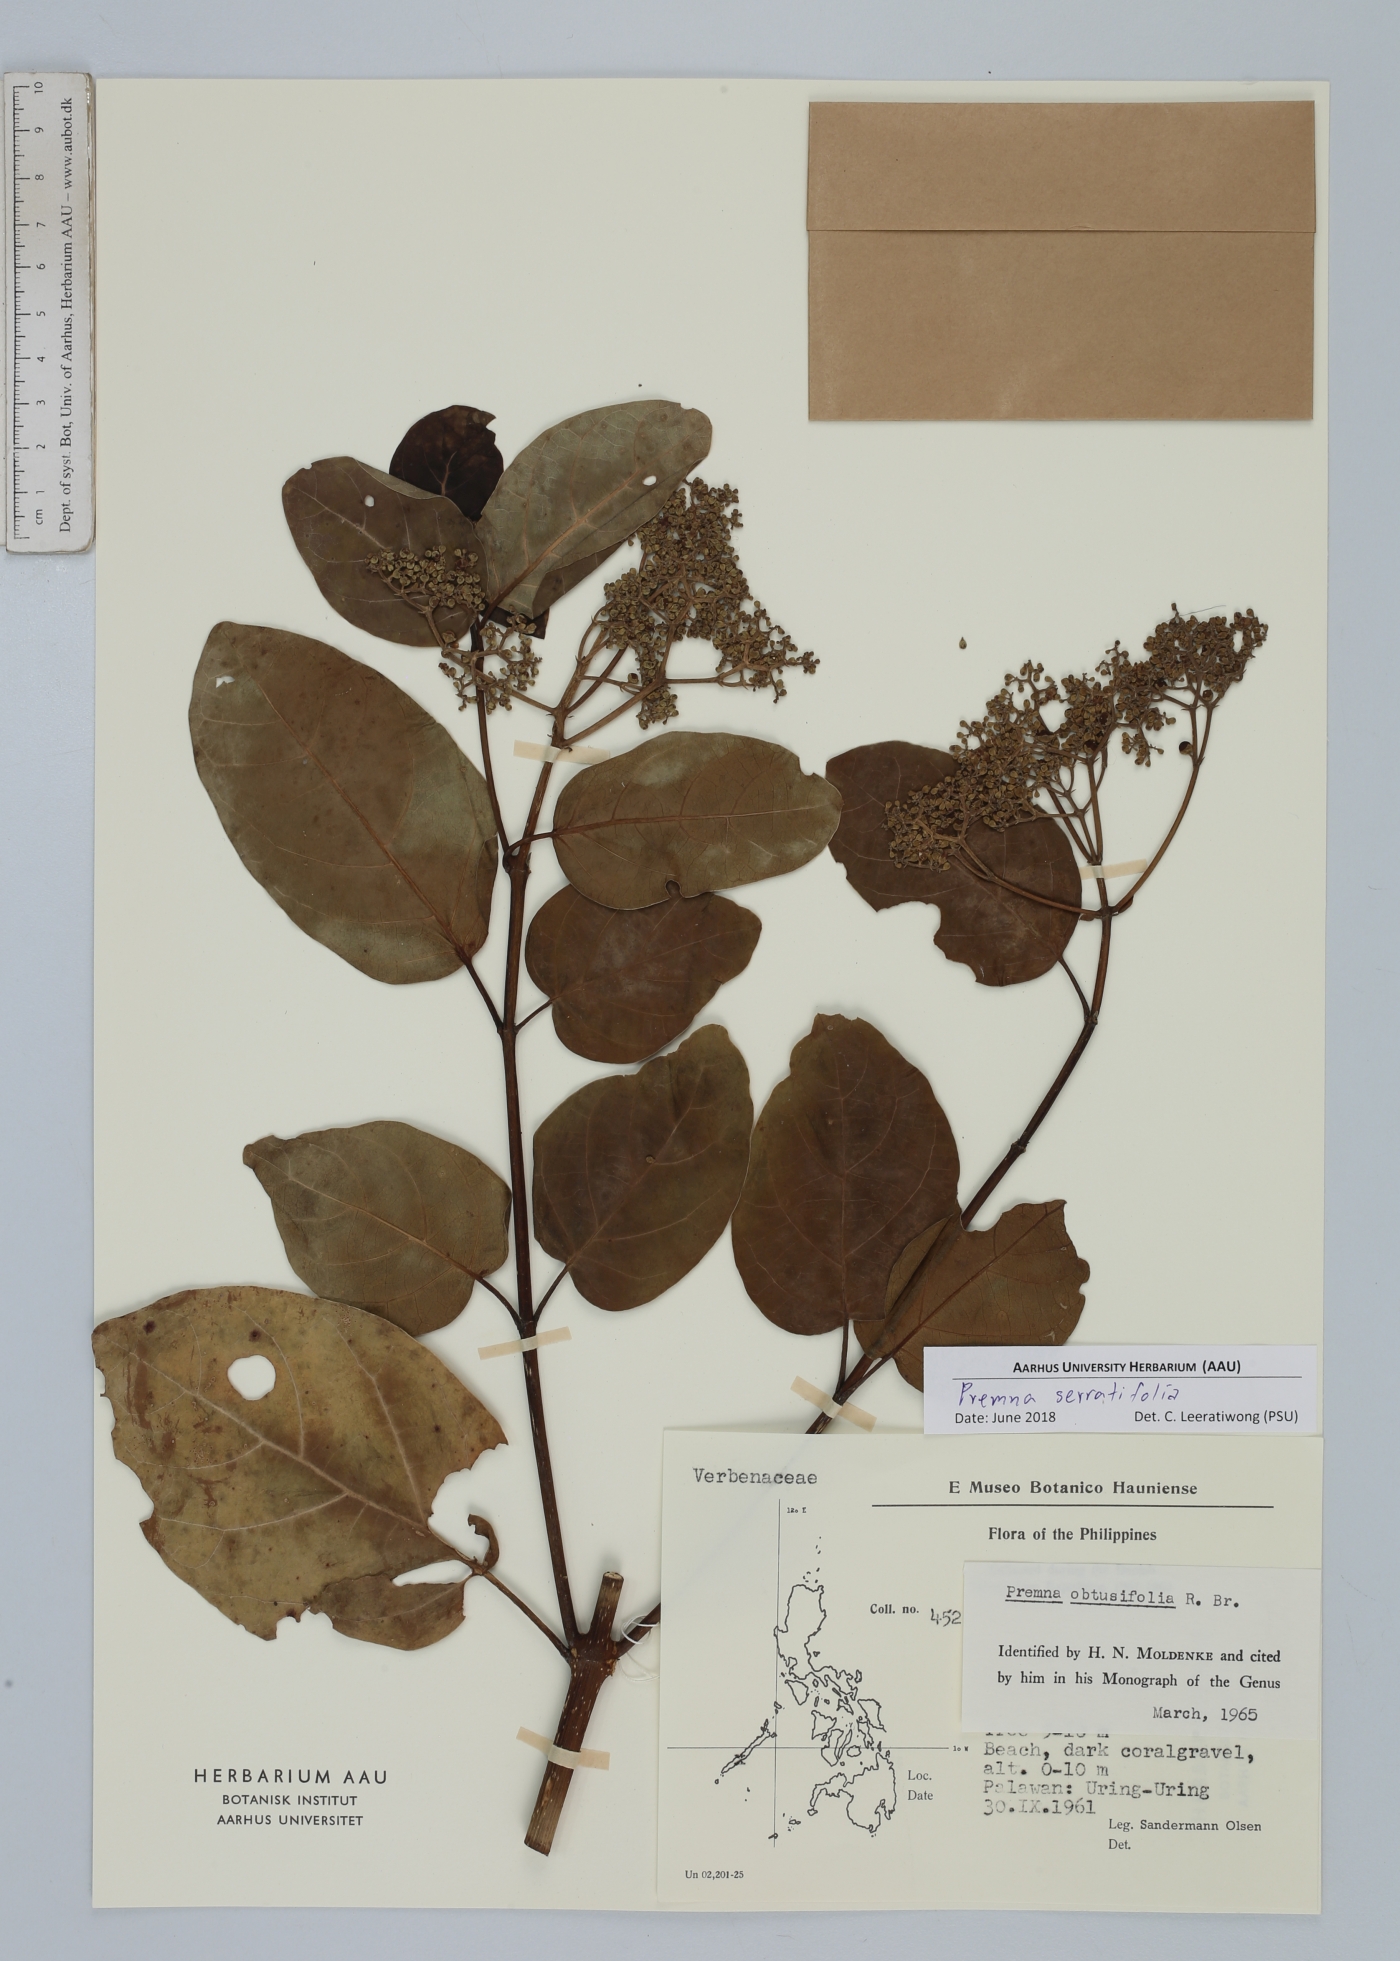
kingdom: Plantae
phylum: Tracheophyta
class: Magnoliopsida
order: Lamiales
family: Lamiaceae
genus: Premna
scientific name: Premna serratifolia
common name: Bastard guelder
